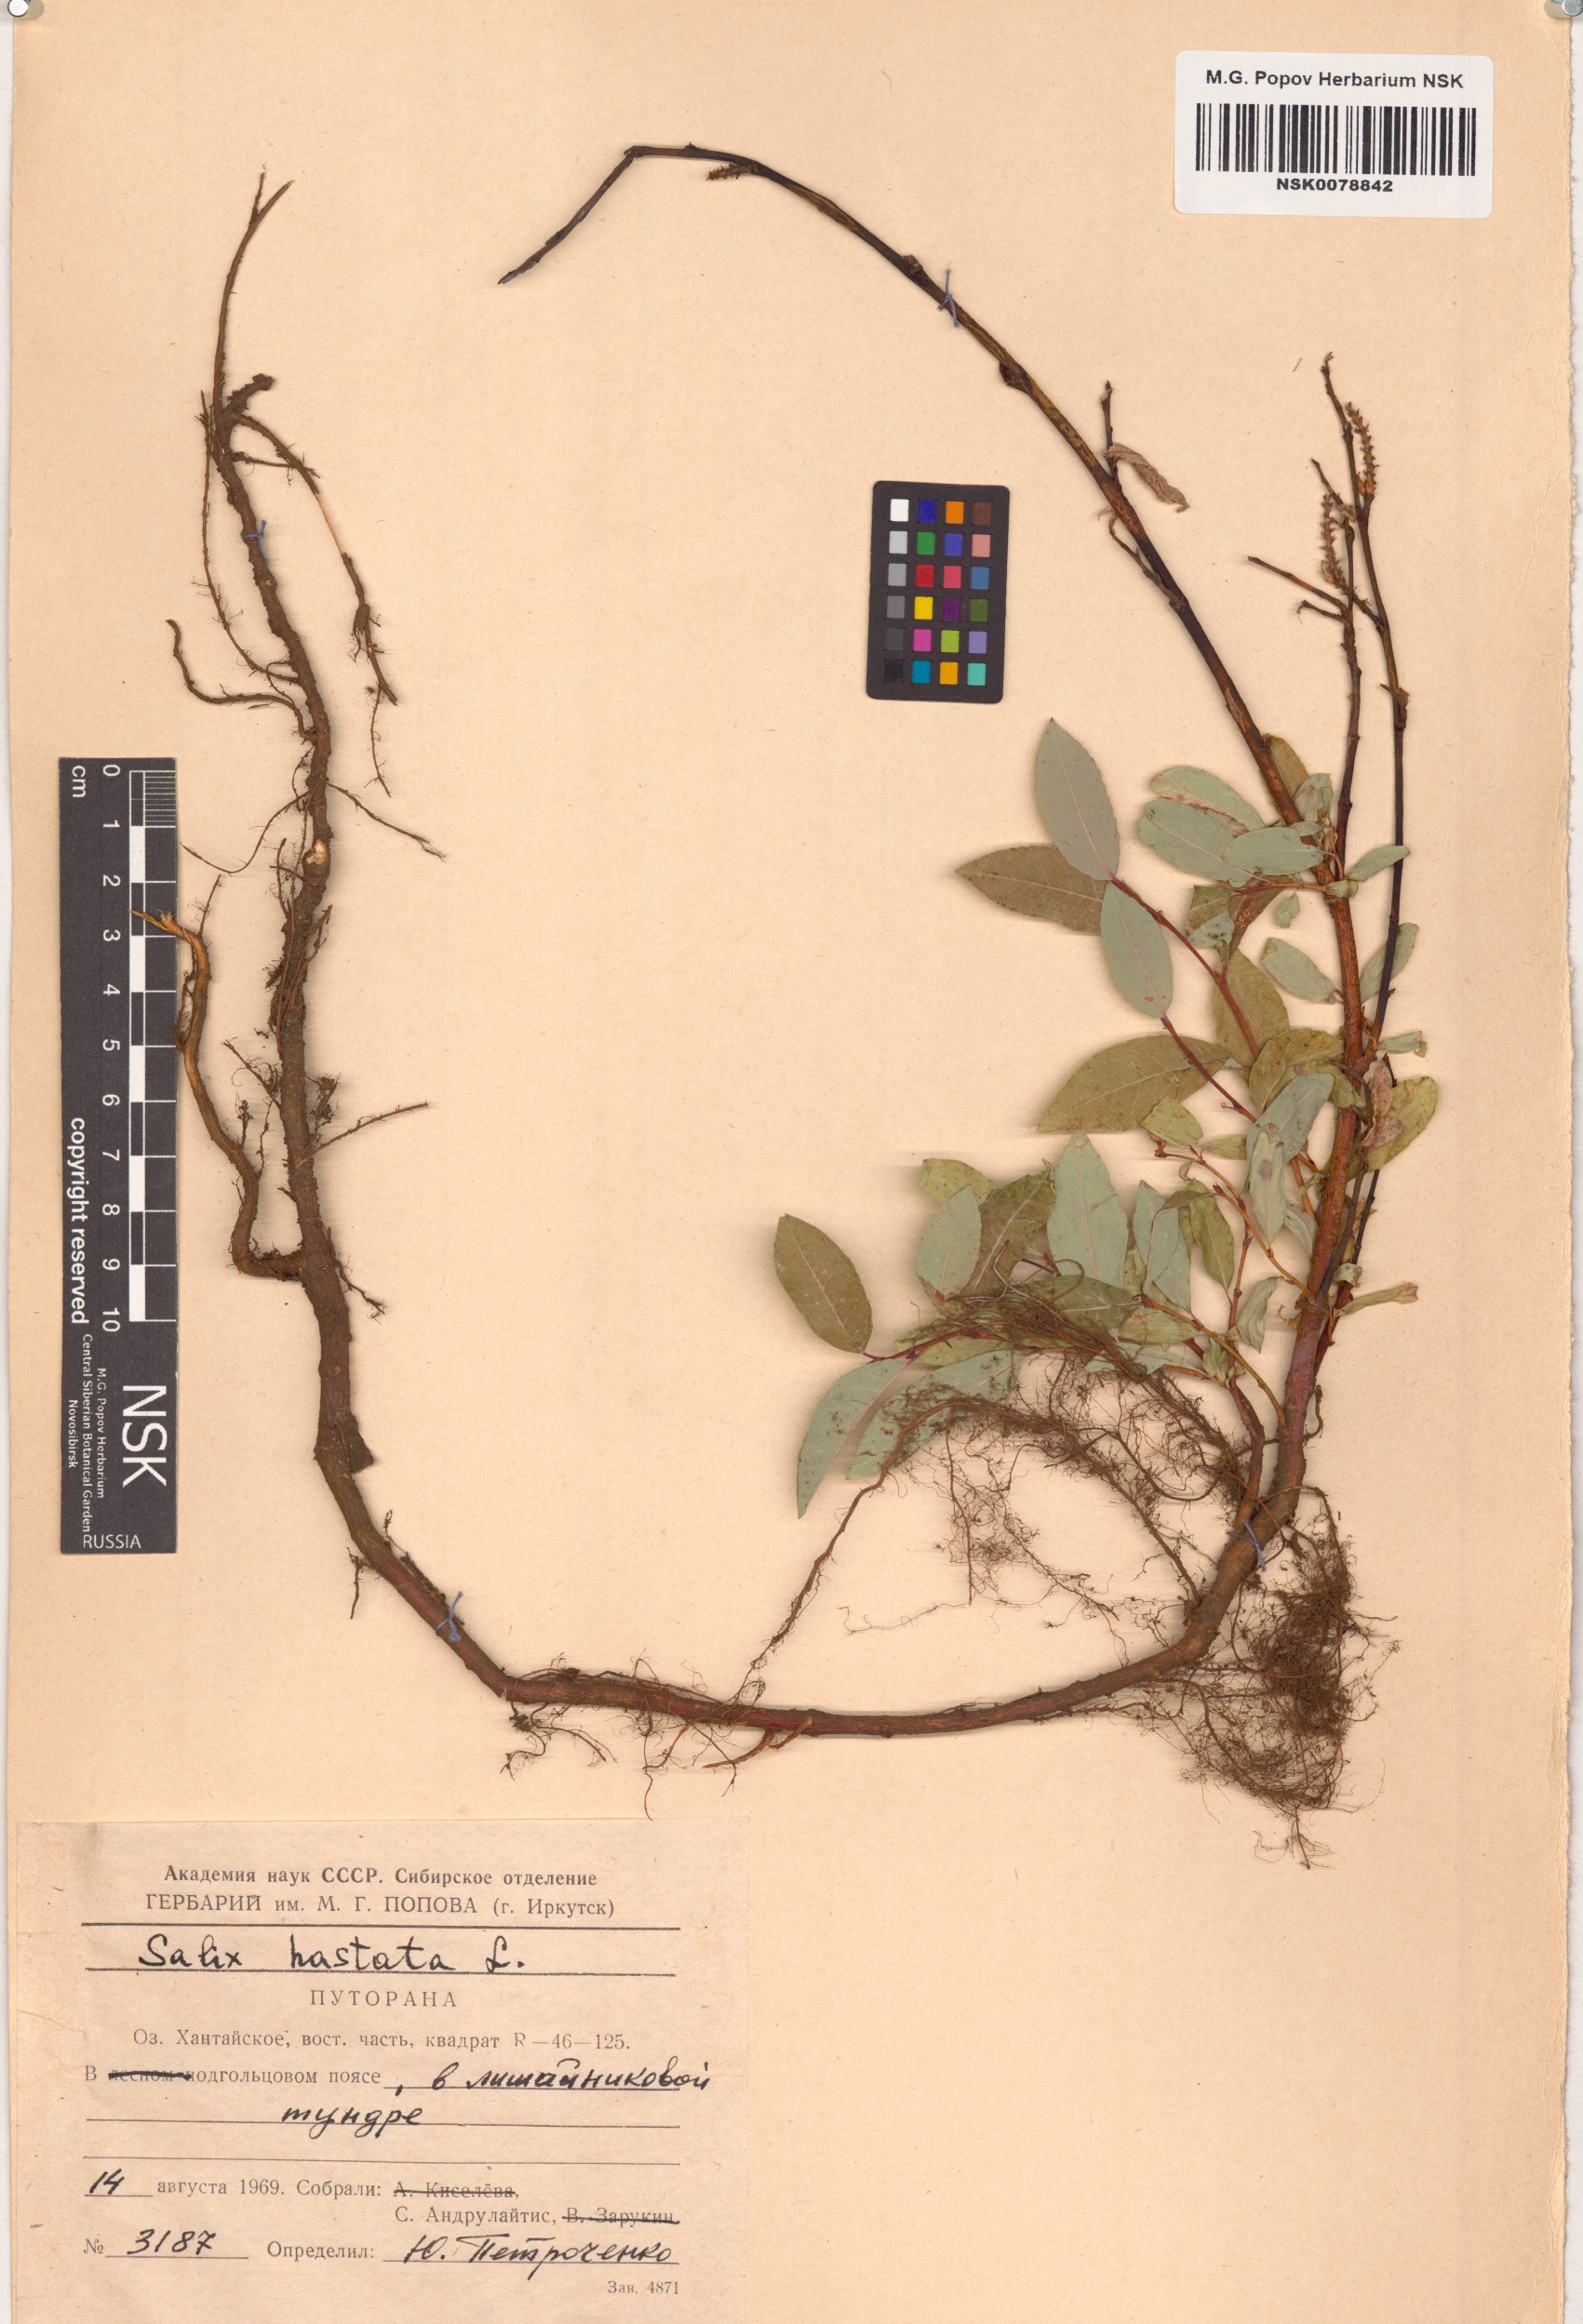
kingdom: Plantae
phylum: Tracheophyta
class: Magnoliopsida
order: Malpighiales
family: Salicaceae
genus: Salix
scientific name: Salix hastata
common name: Halberd willow
